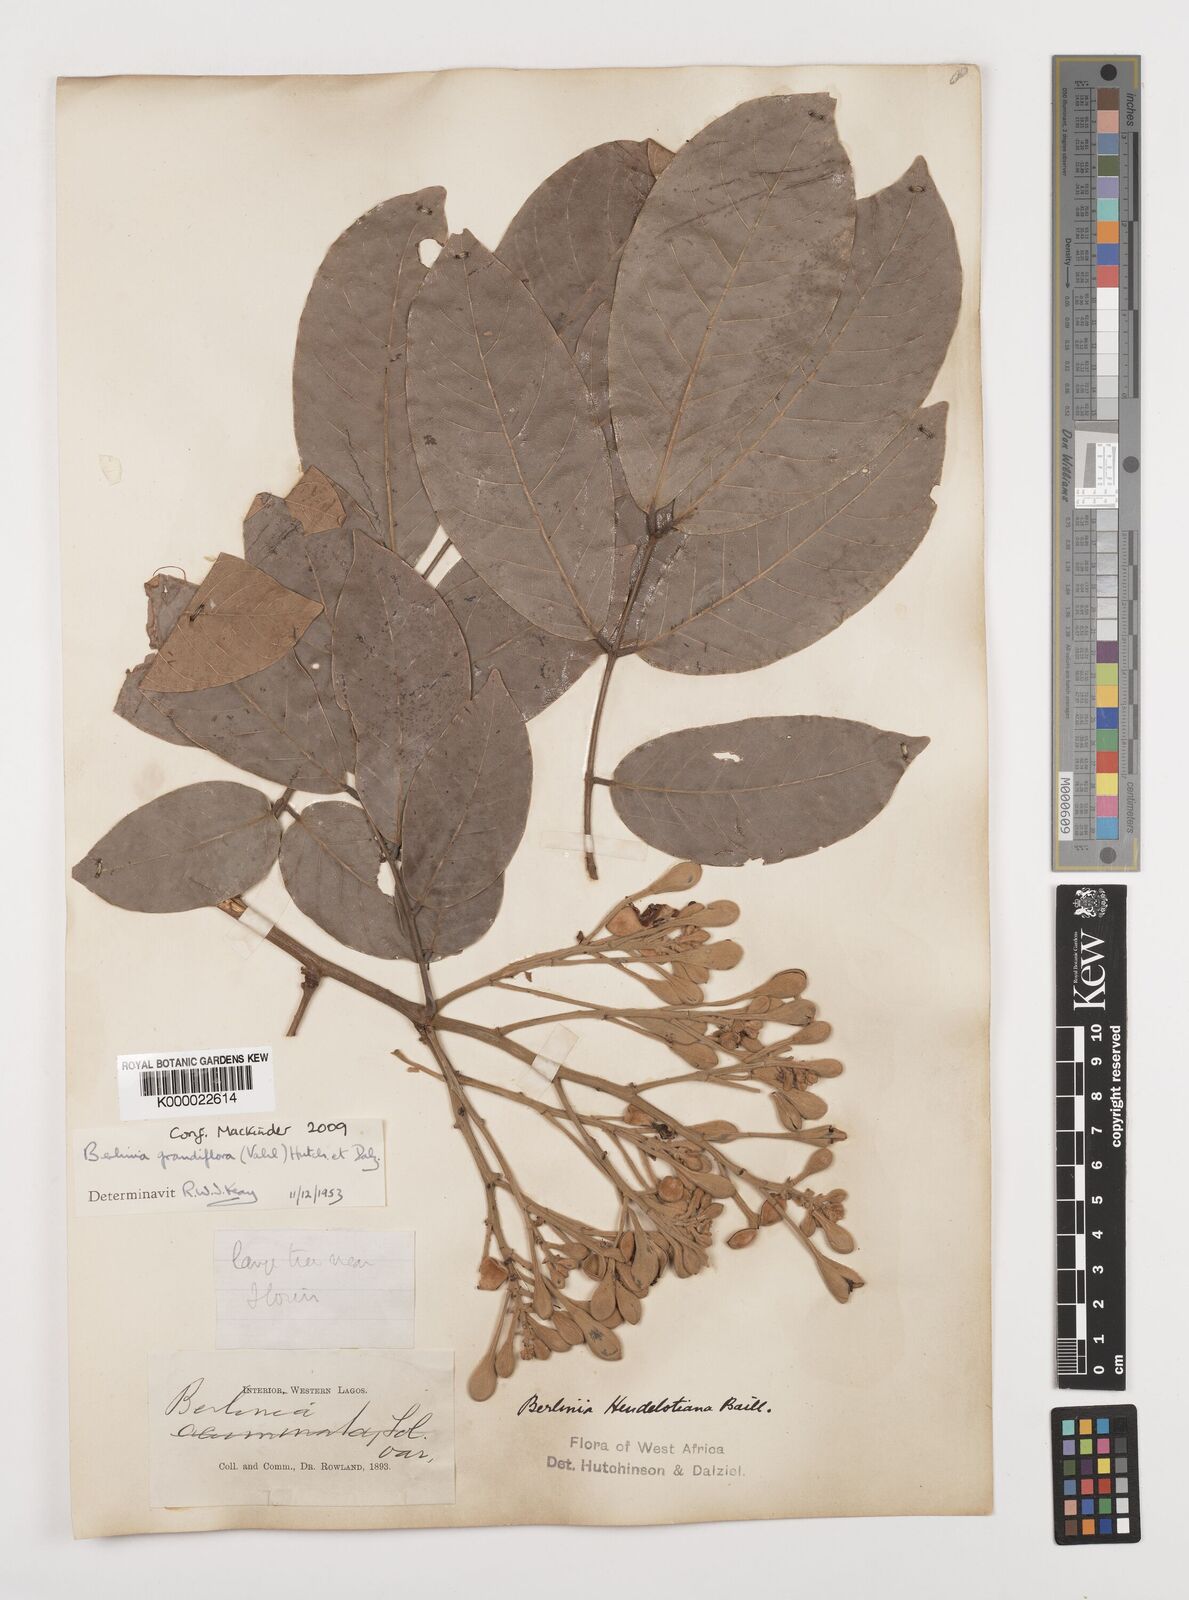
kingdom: Plantae
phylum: Tracheophyta
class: Magnoliopsida
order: Fabales
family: Fabaceae
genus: Berlinia
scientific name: Berlinia grandiflora
